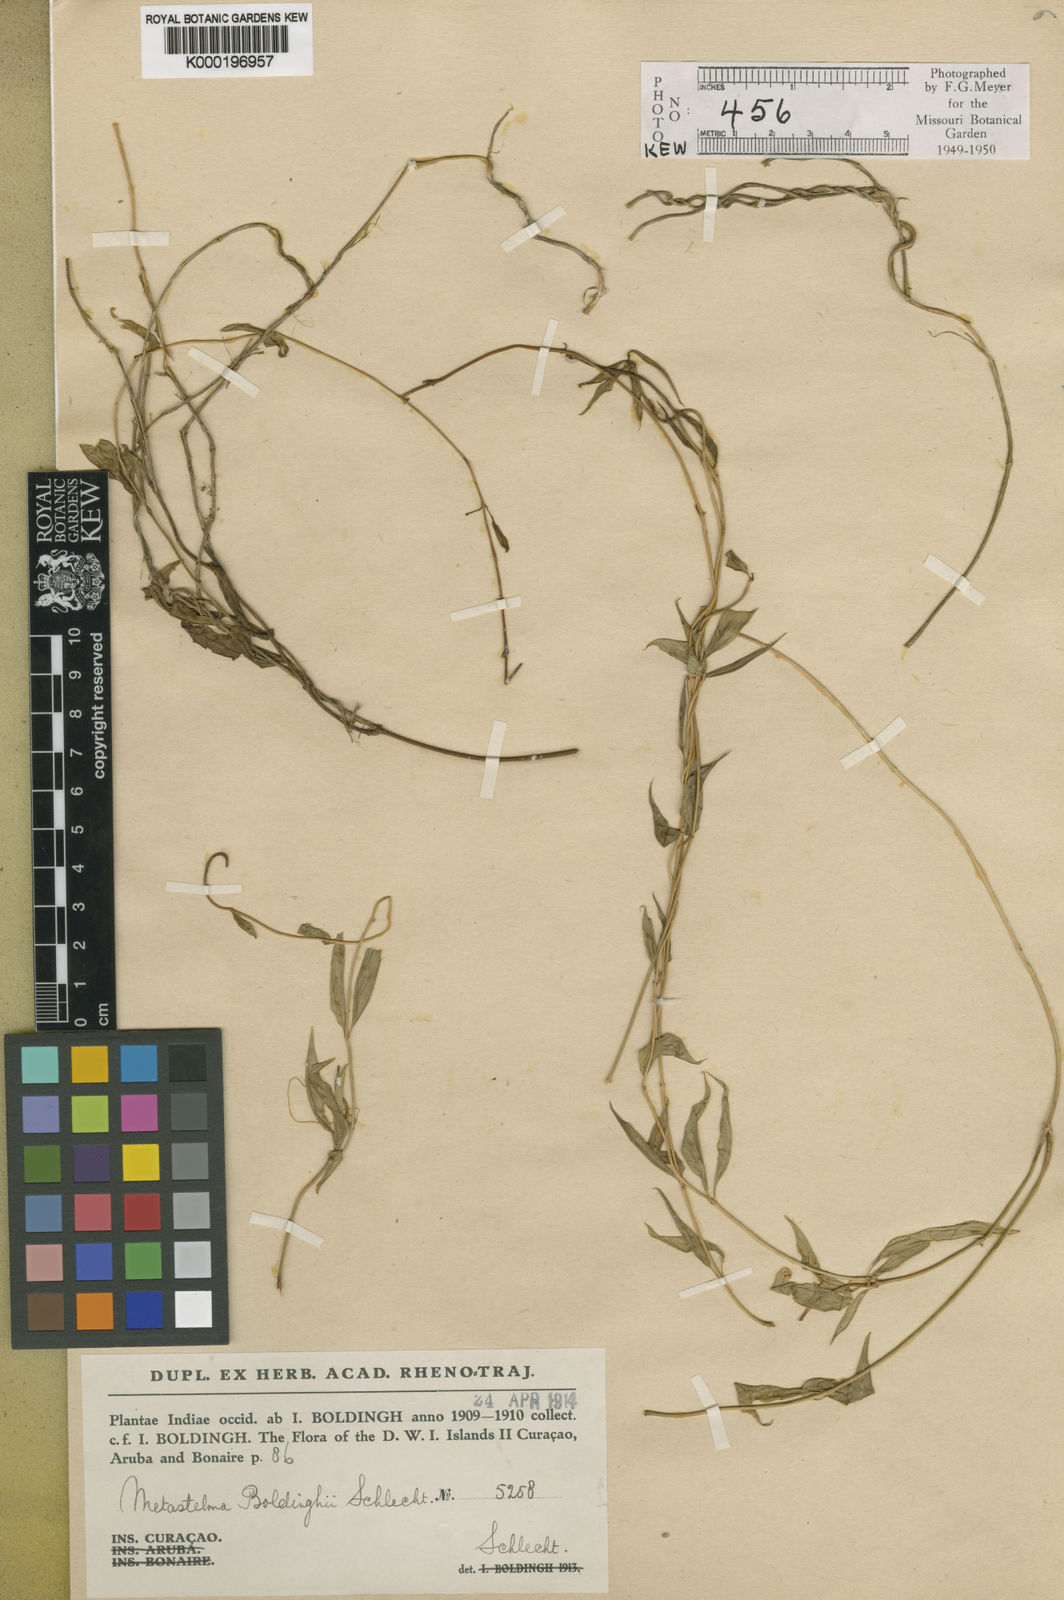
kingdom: Plantae
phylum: Tracheophyta
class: Magnoliopsida
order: Gentianales
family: Apocynaceae
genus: Metastelma
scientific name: Metastelma boldinghii
